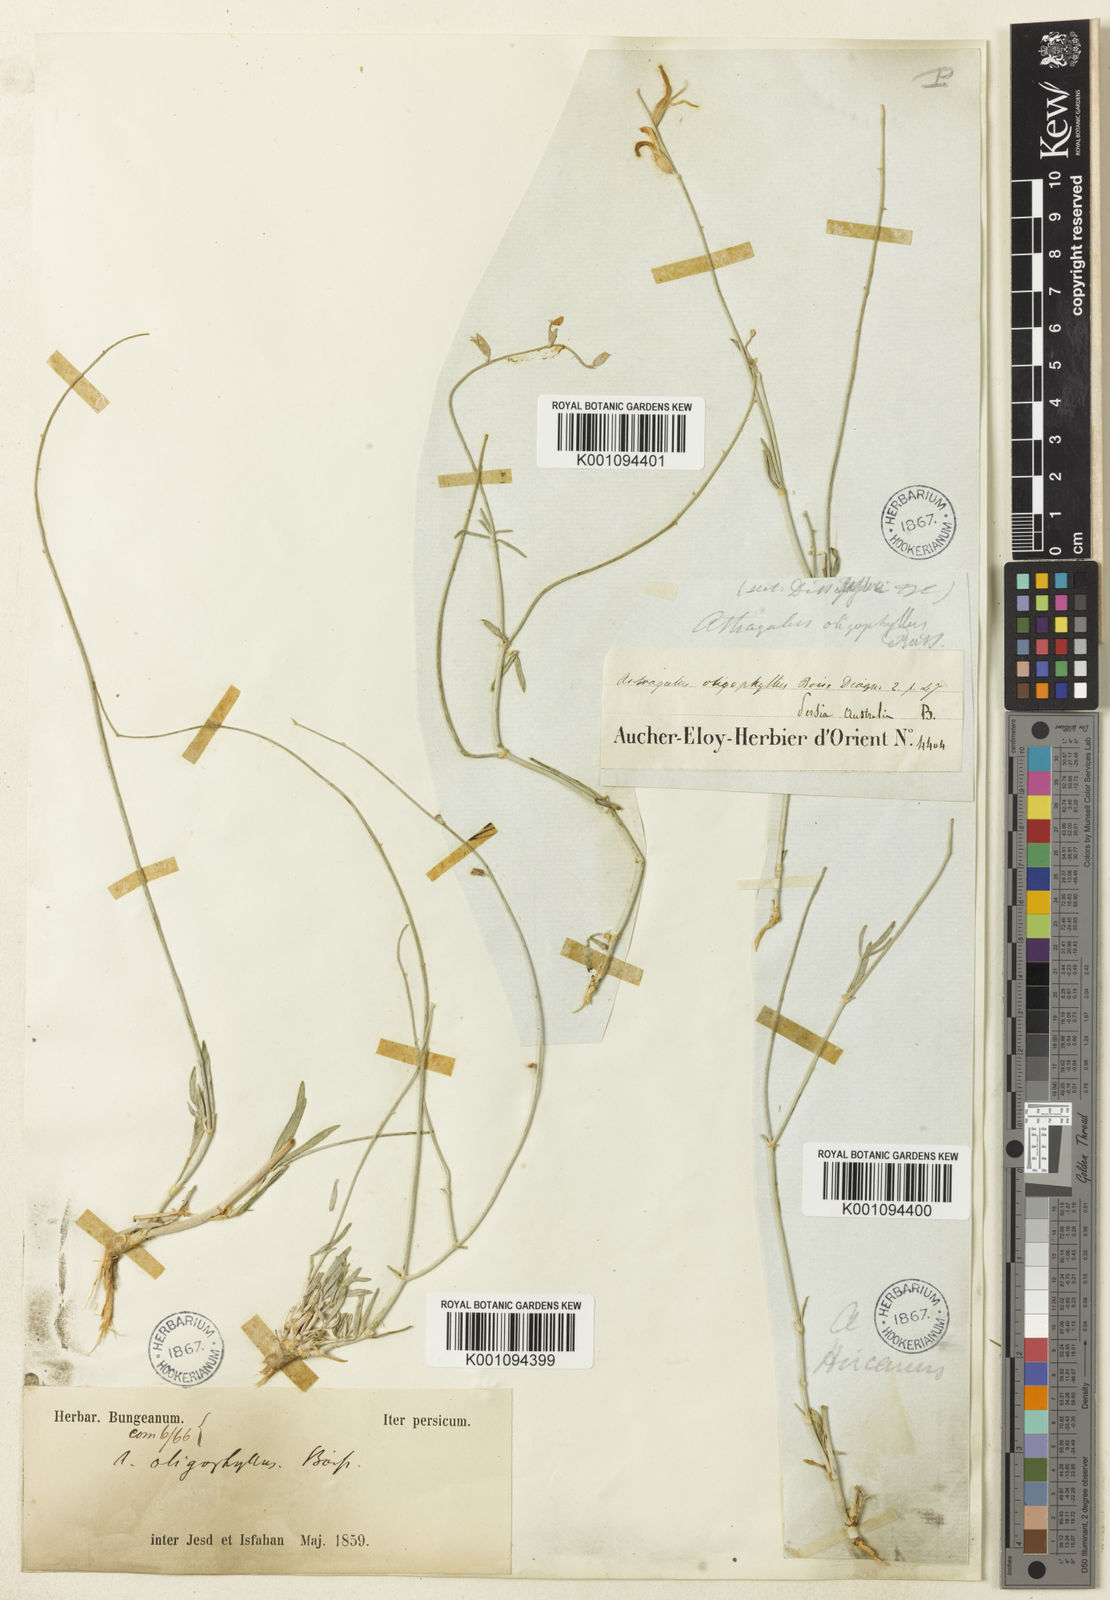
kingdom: Plantae
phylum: Tracheophyta
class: Magnoliopsida
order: Fabales
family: Fabaceae
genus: Astragalus
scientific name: Astragalus
